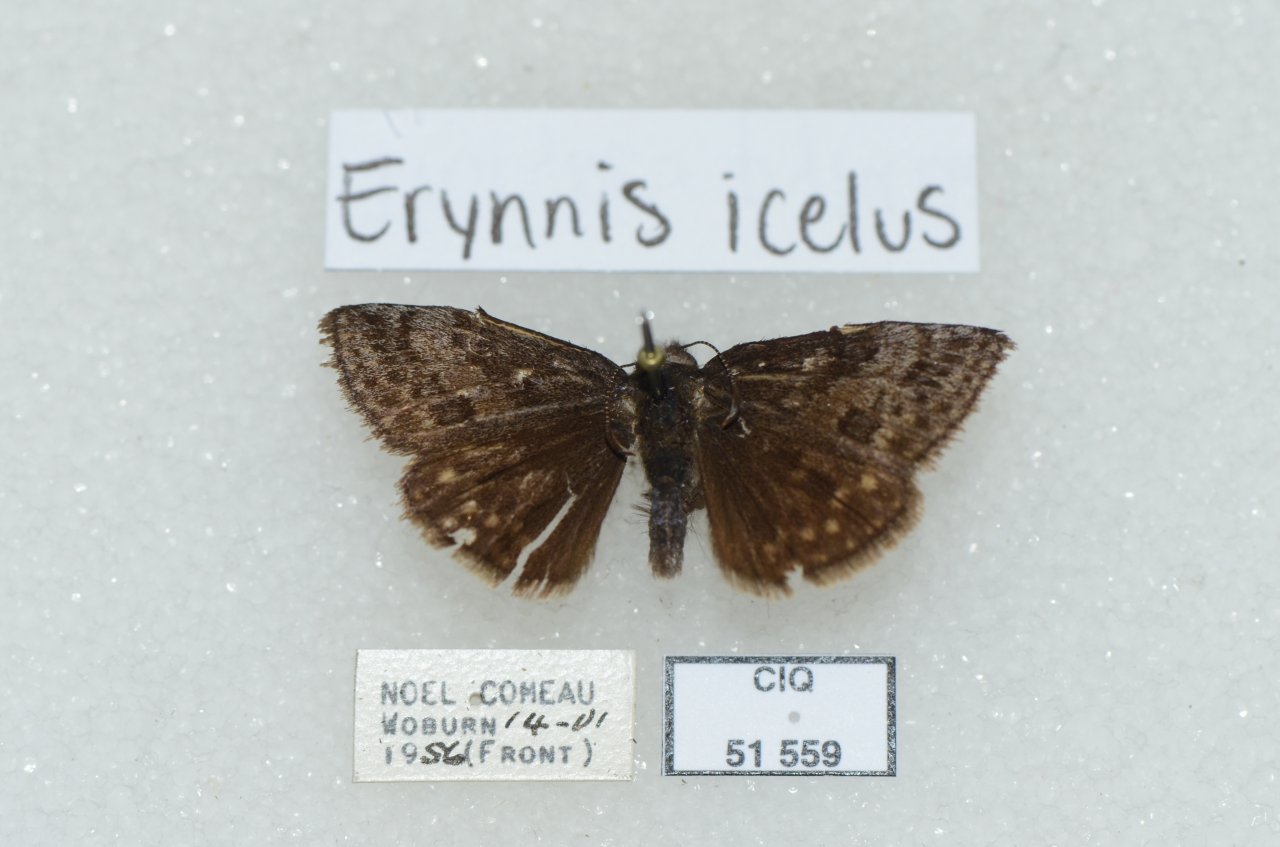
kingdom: Animalia
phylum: Arthropoda
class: Insecta
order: Lepidoptera
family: Hesperiidae
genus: Erynnis
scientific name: Erynnis icelus
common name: Dreamy Duskywing
